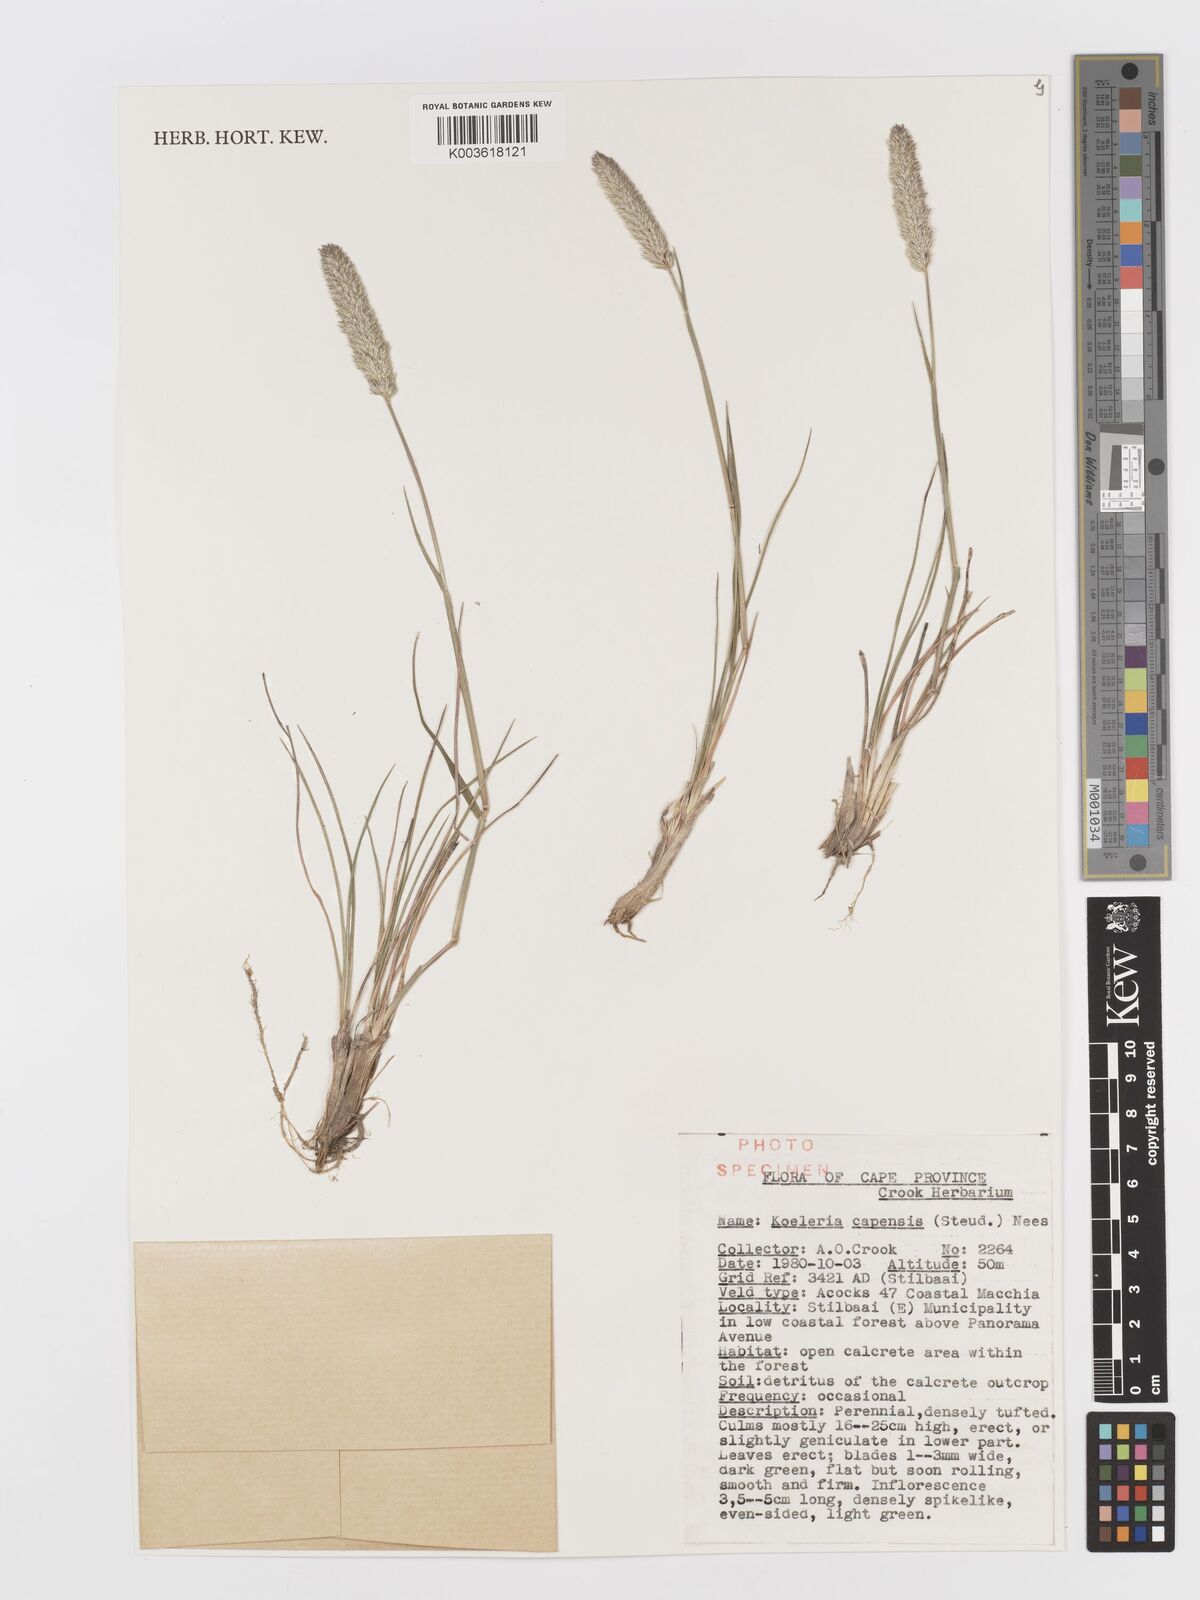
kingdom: Plantae
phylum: Tracheophyta
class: Liliopsida
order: Poales
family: Poaceae
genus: Koeleria
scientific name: Koeleria capensis
